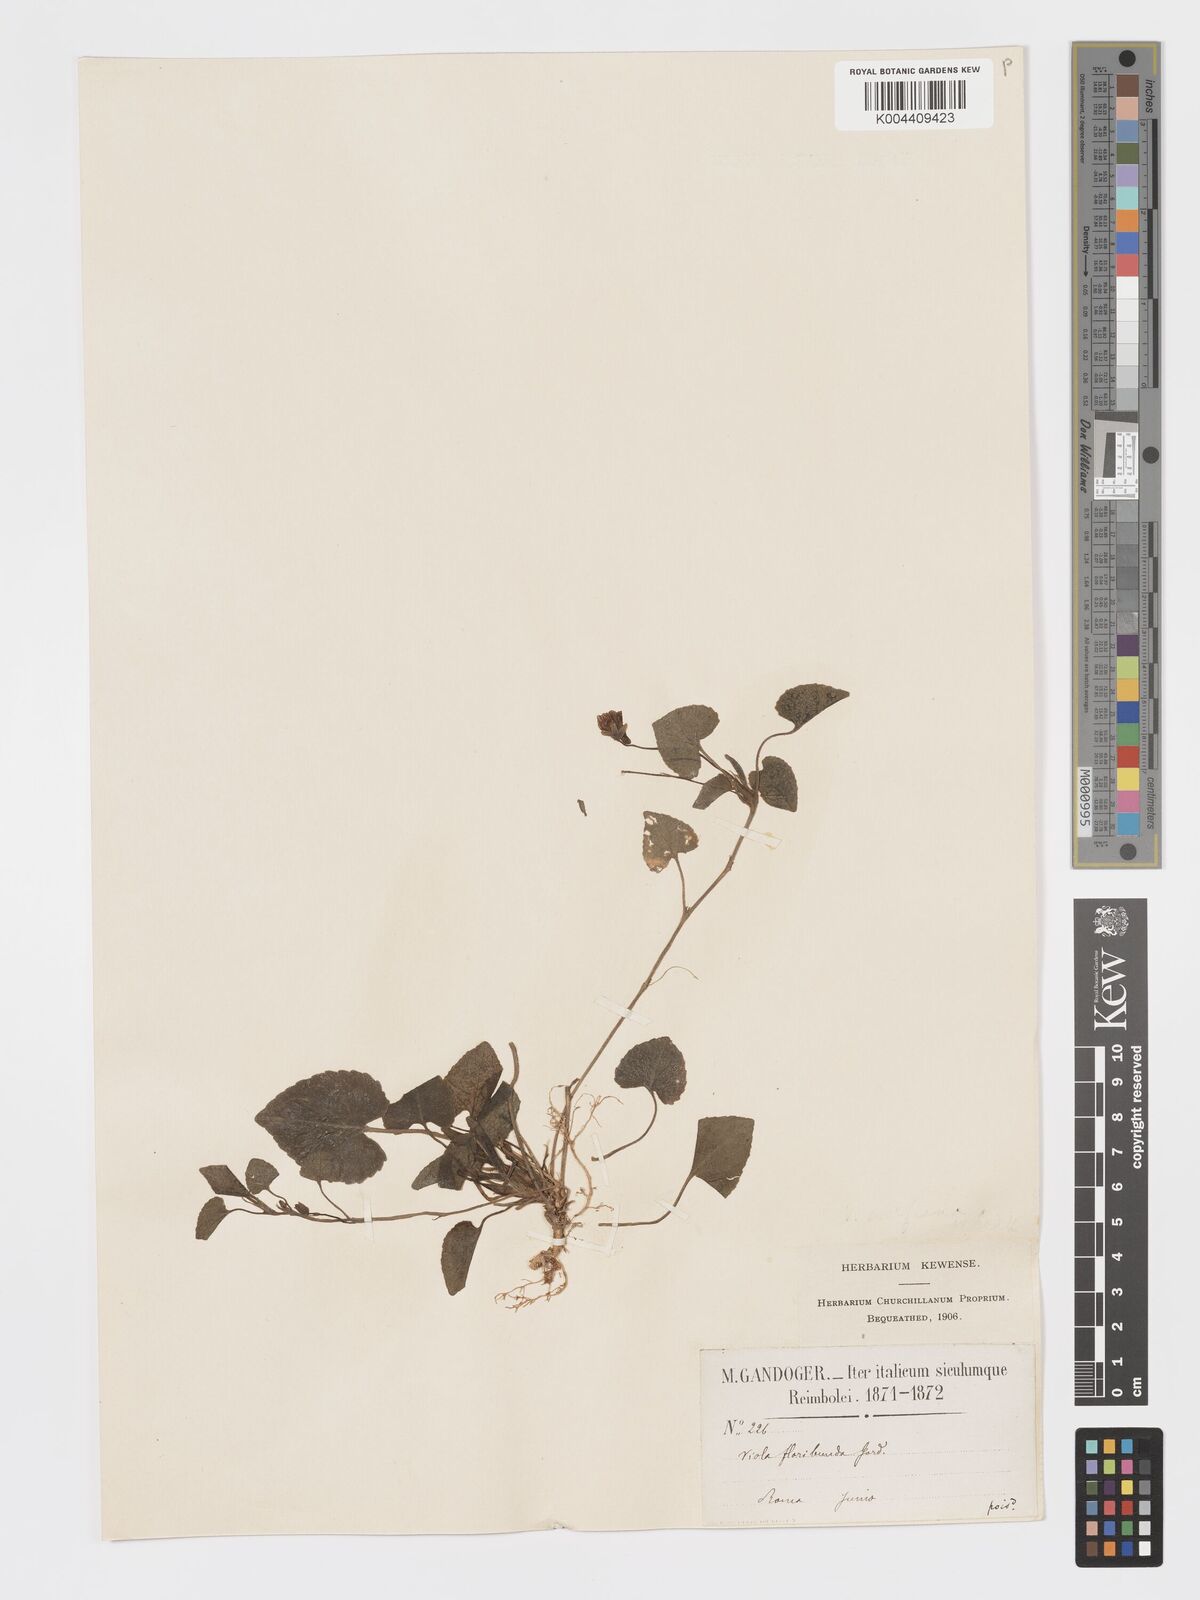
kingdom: Plantae
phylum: Tracheophyta
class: Magnoliopsida
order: Malpighiales
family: Violaceae
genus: Viola
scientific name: Viola alba
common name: White violet
